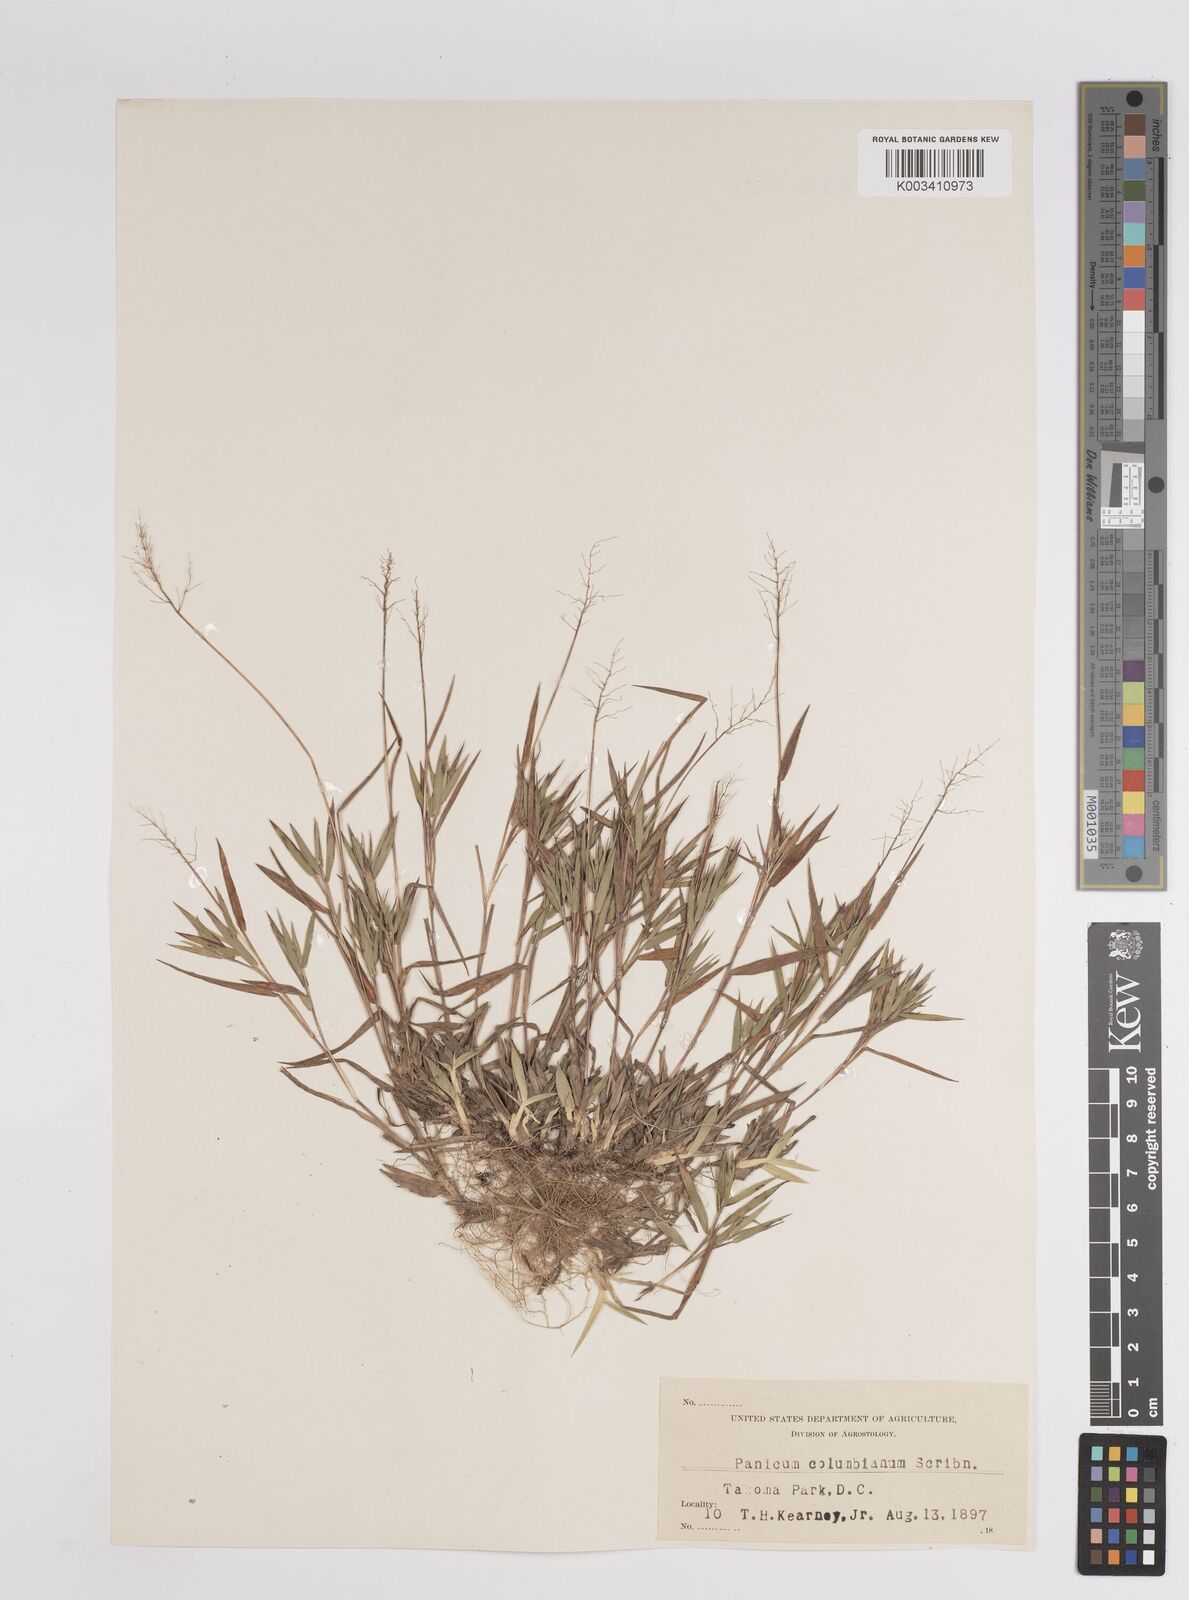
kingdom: Plantae
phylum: Tracheophyta
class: Liliopsida
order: Poales
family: Poaceae
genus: Dichanthelium
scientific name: Dichanthelium columbianum
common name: Hemlock panic grass
